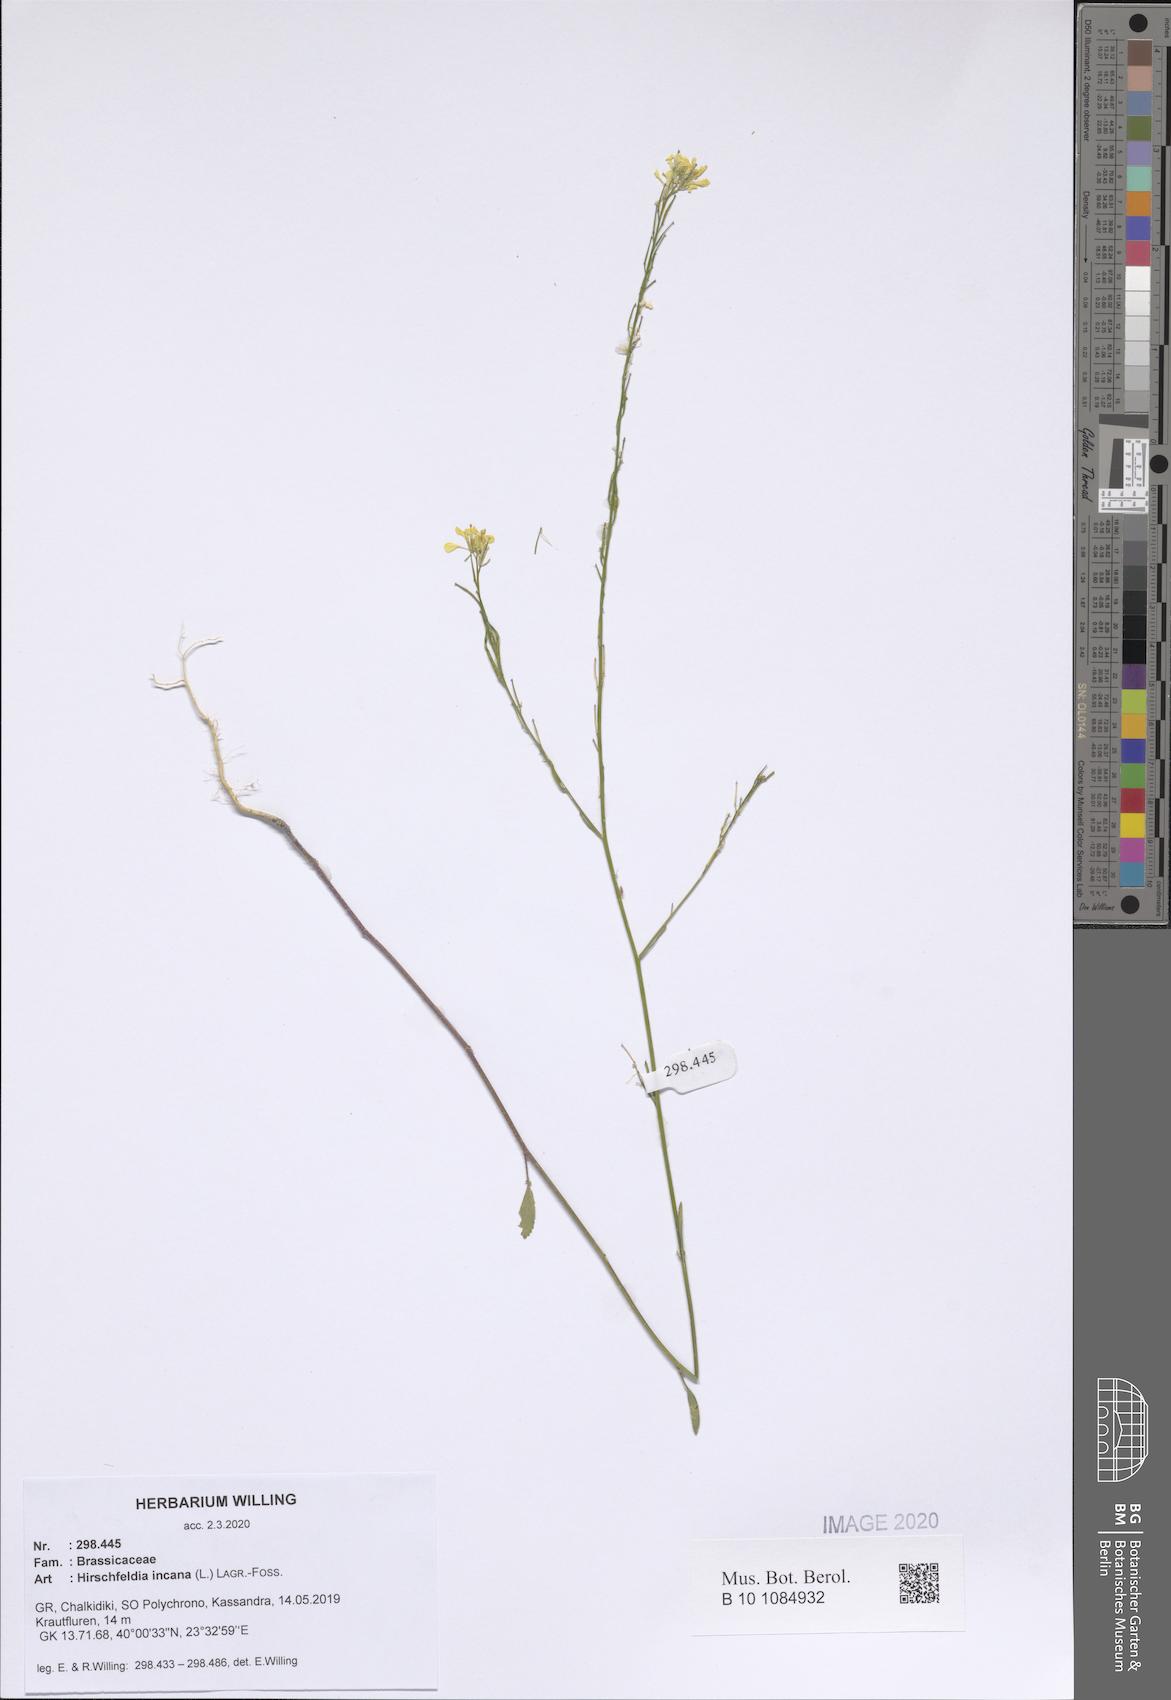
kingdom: Plantae
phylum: Tracheophyta
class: Magnoliopsida
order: Brassicales
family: Brassicaceae
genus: Hirschfeldia
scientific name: Hirschfeldia incana
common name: Hoary mustard
